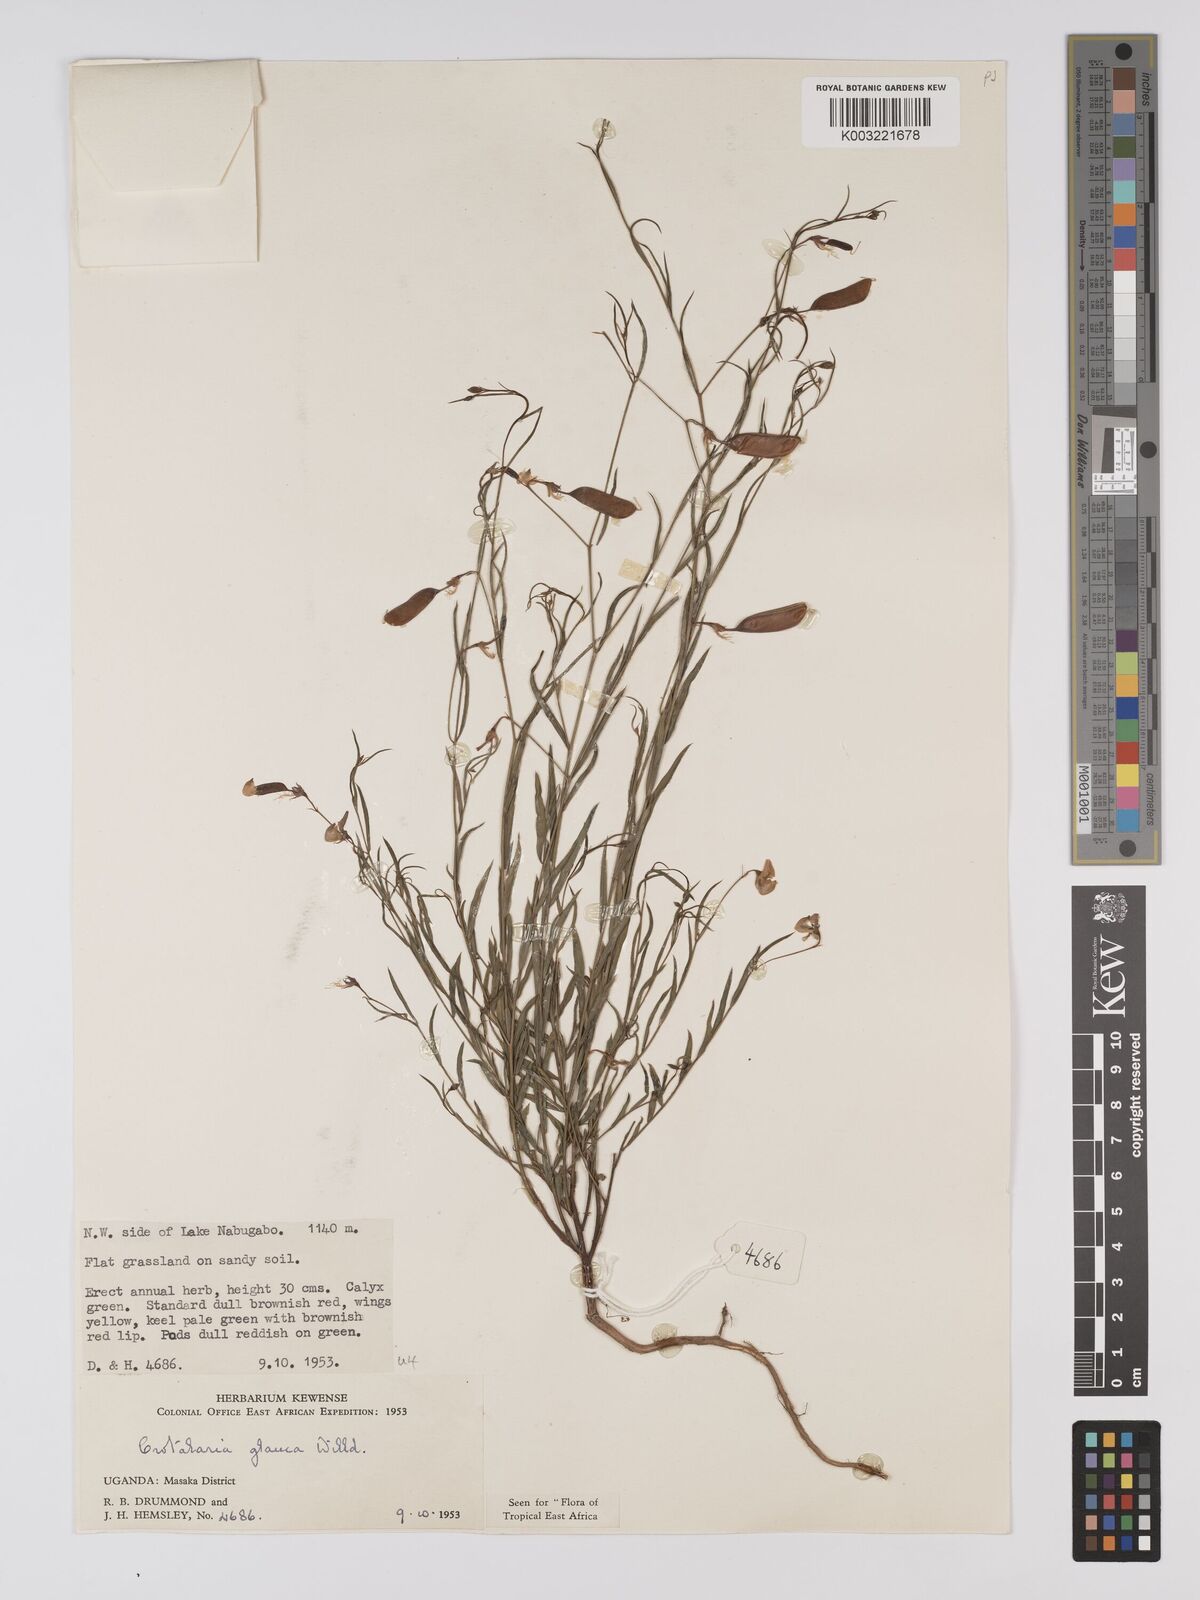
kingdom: Plantae
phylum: Tracheophyta
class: Magnoliopsida
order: Fabales
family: Fabaceae
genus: Crotalaria
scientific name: Crotalaria glauca
